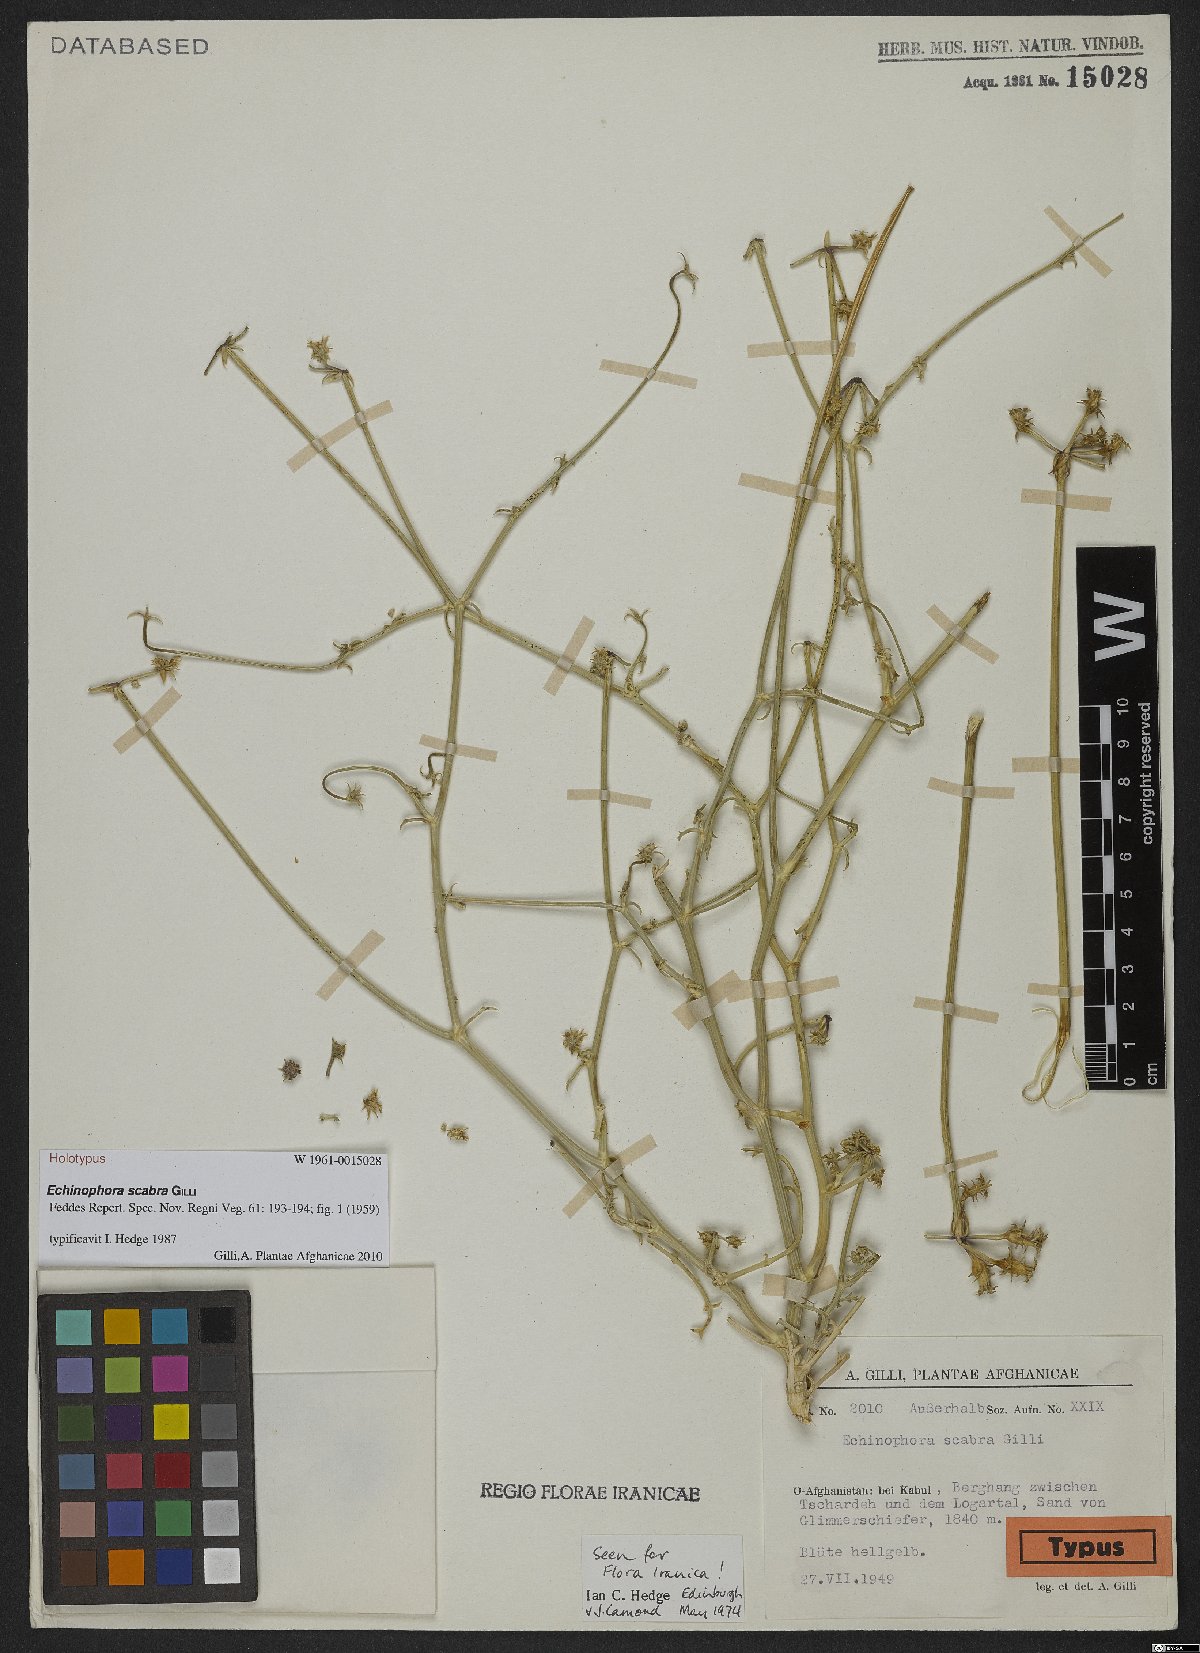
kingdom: Plantae
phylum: Tracheophyta
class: Magnoliopsida
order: Apiales
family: Apiaceae
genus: Echinophora
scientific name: Echinophora scabra
